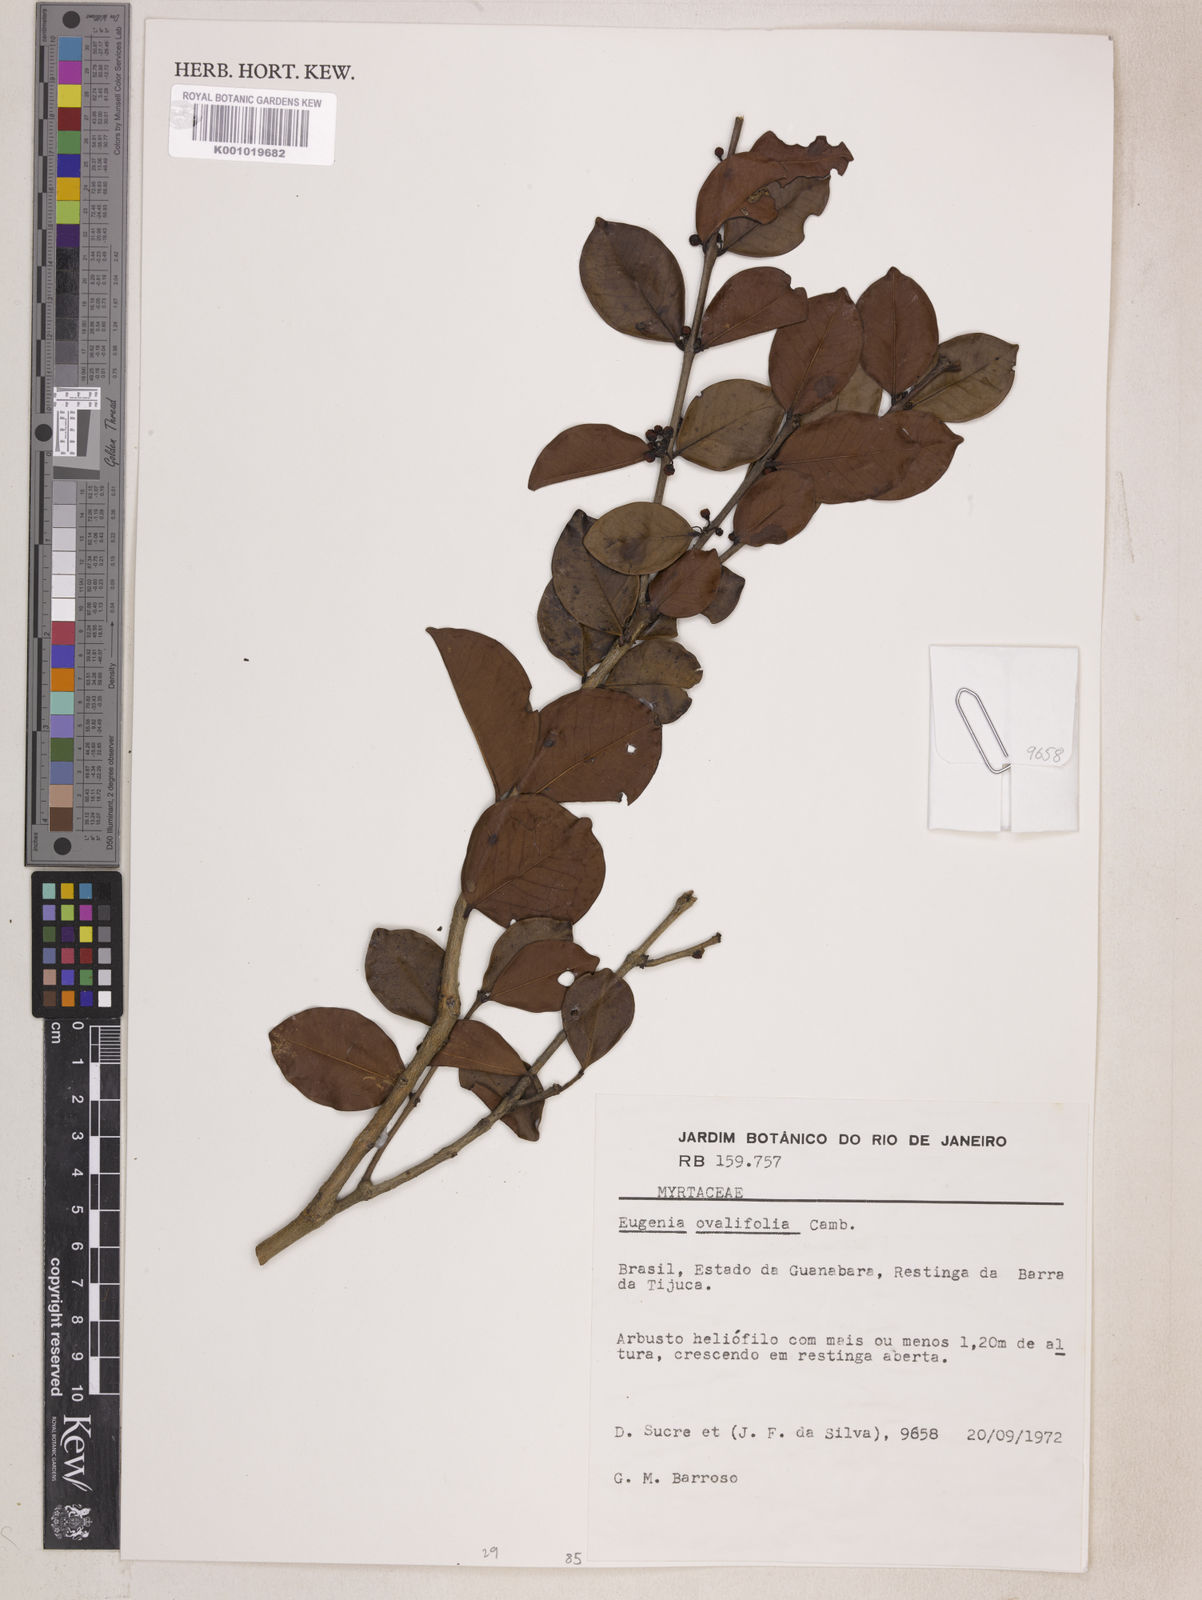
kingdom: Plantae
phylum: Tracheophyta
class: Magnoliopsida
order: Myrtales
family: Myrtaceae
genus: Eugenia
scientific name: Eugenia punicifolia
